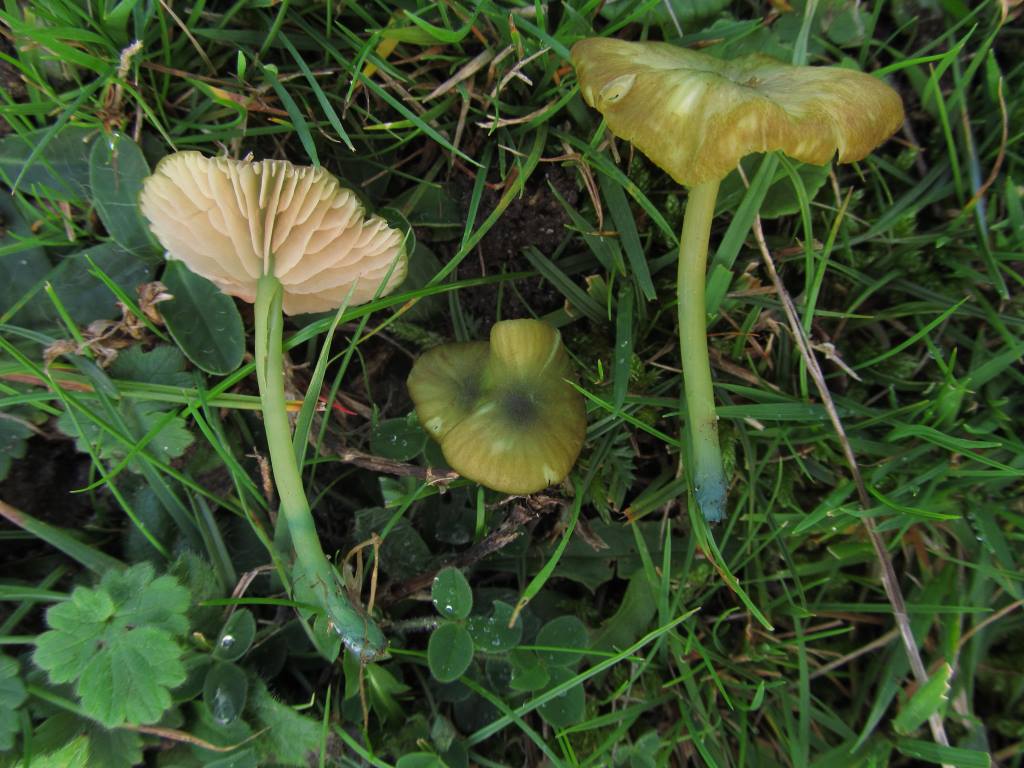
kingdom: Fungi
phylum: Basidiomycota
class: Agaricomycetes
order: Agaricales
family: Entolomataceae
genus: Entoloma
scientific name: Entoloma incanum
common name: grøngul rødblad
